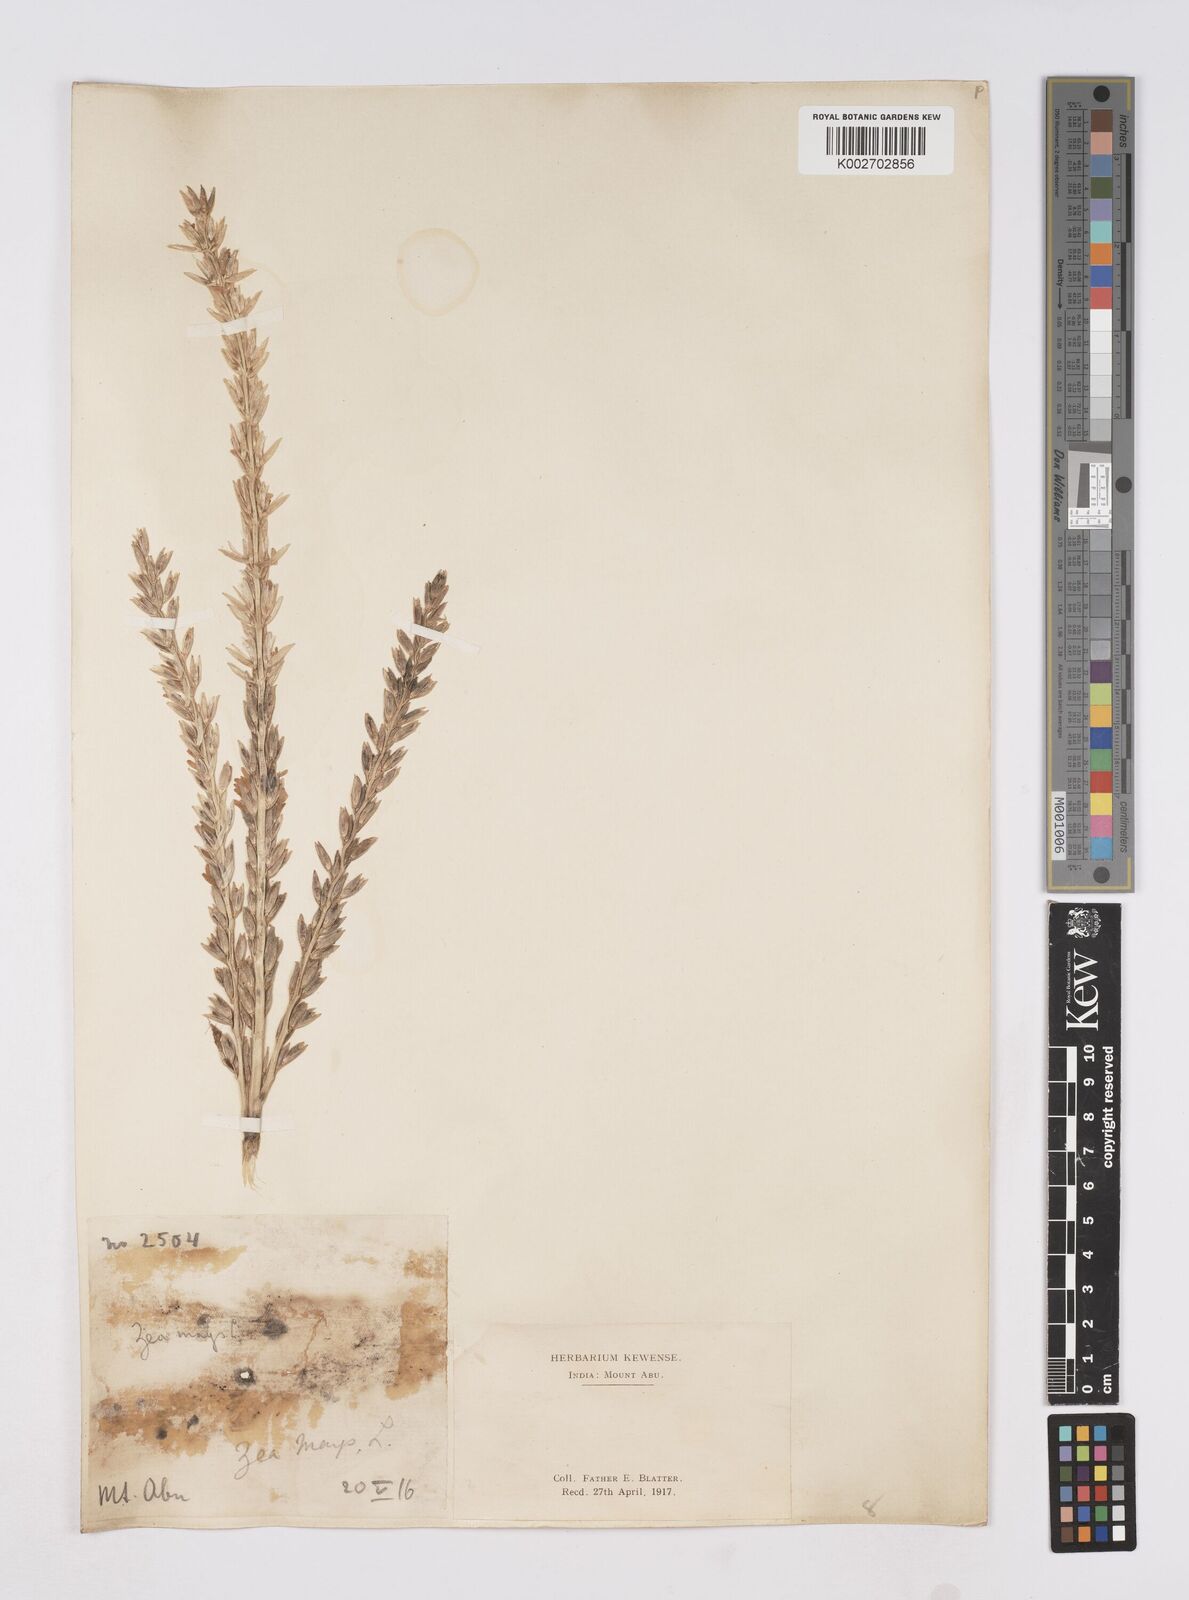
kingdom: Plantae
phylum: Tracheophyta
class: Liliopsida
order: Poales
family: Poaceae
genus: Zea
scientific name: Zea mays
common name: Maize
